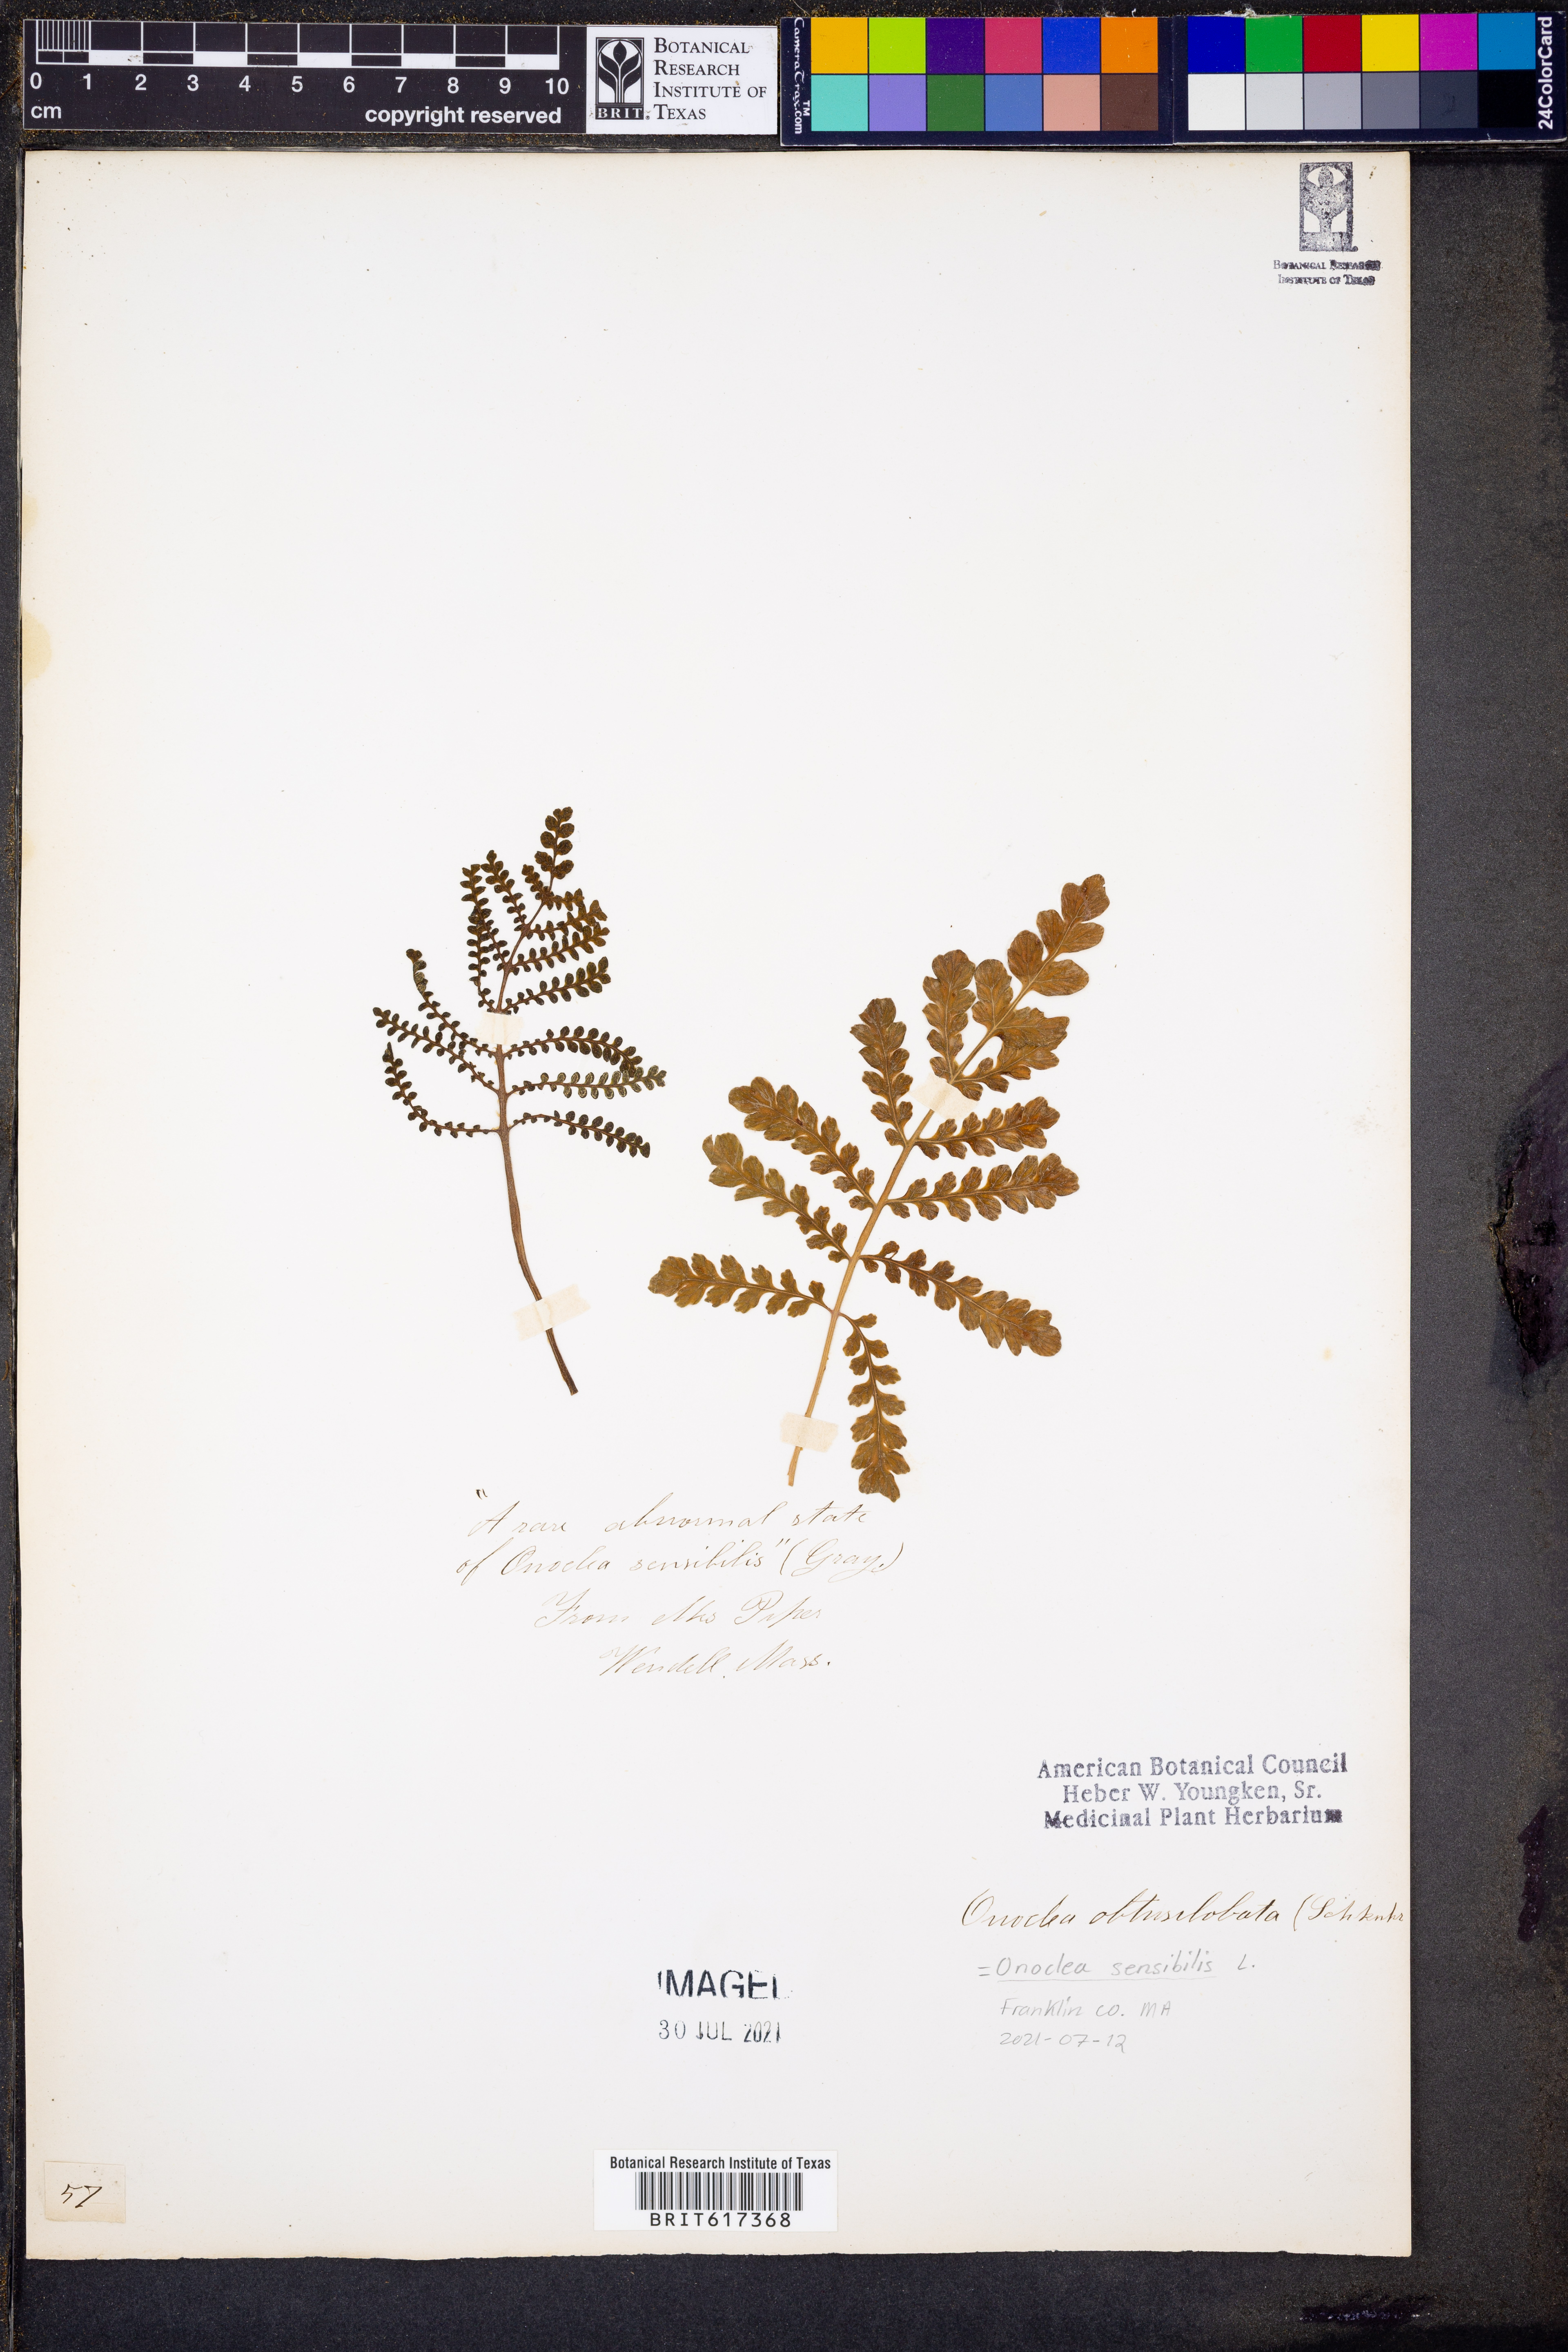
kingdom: Plantae
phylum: Tracheophyta
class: Polypodiopsida
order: Polypodiales
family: Onocleaceae
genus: Onoclea
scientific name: Onoclea sensibilis
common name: Sensitive fern
